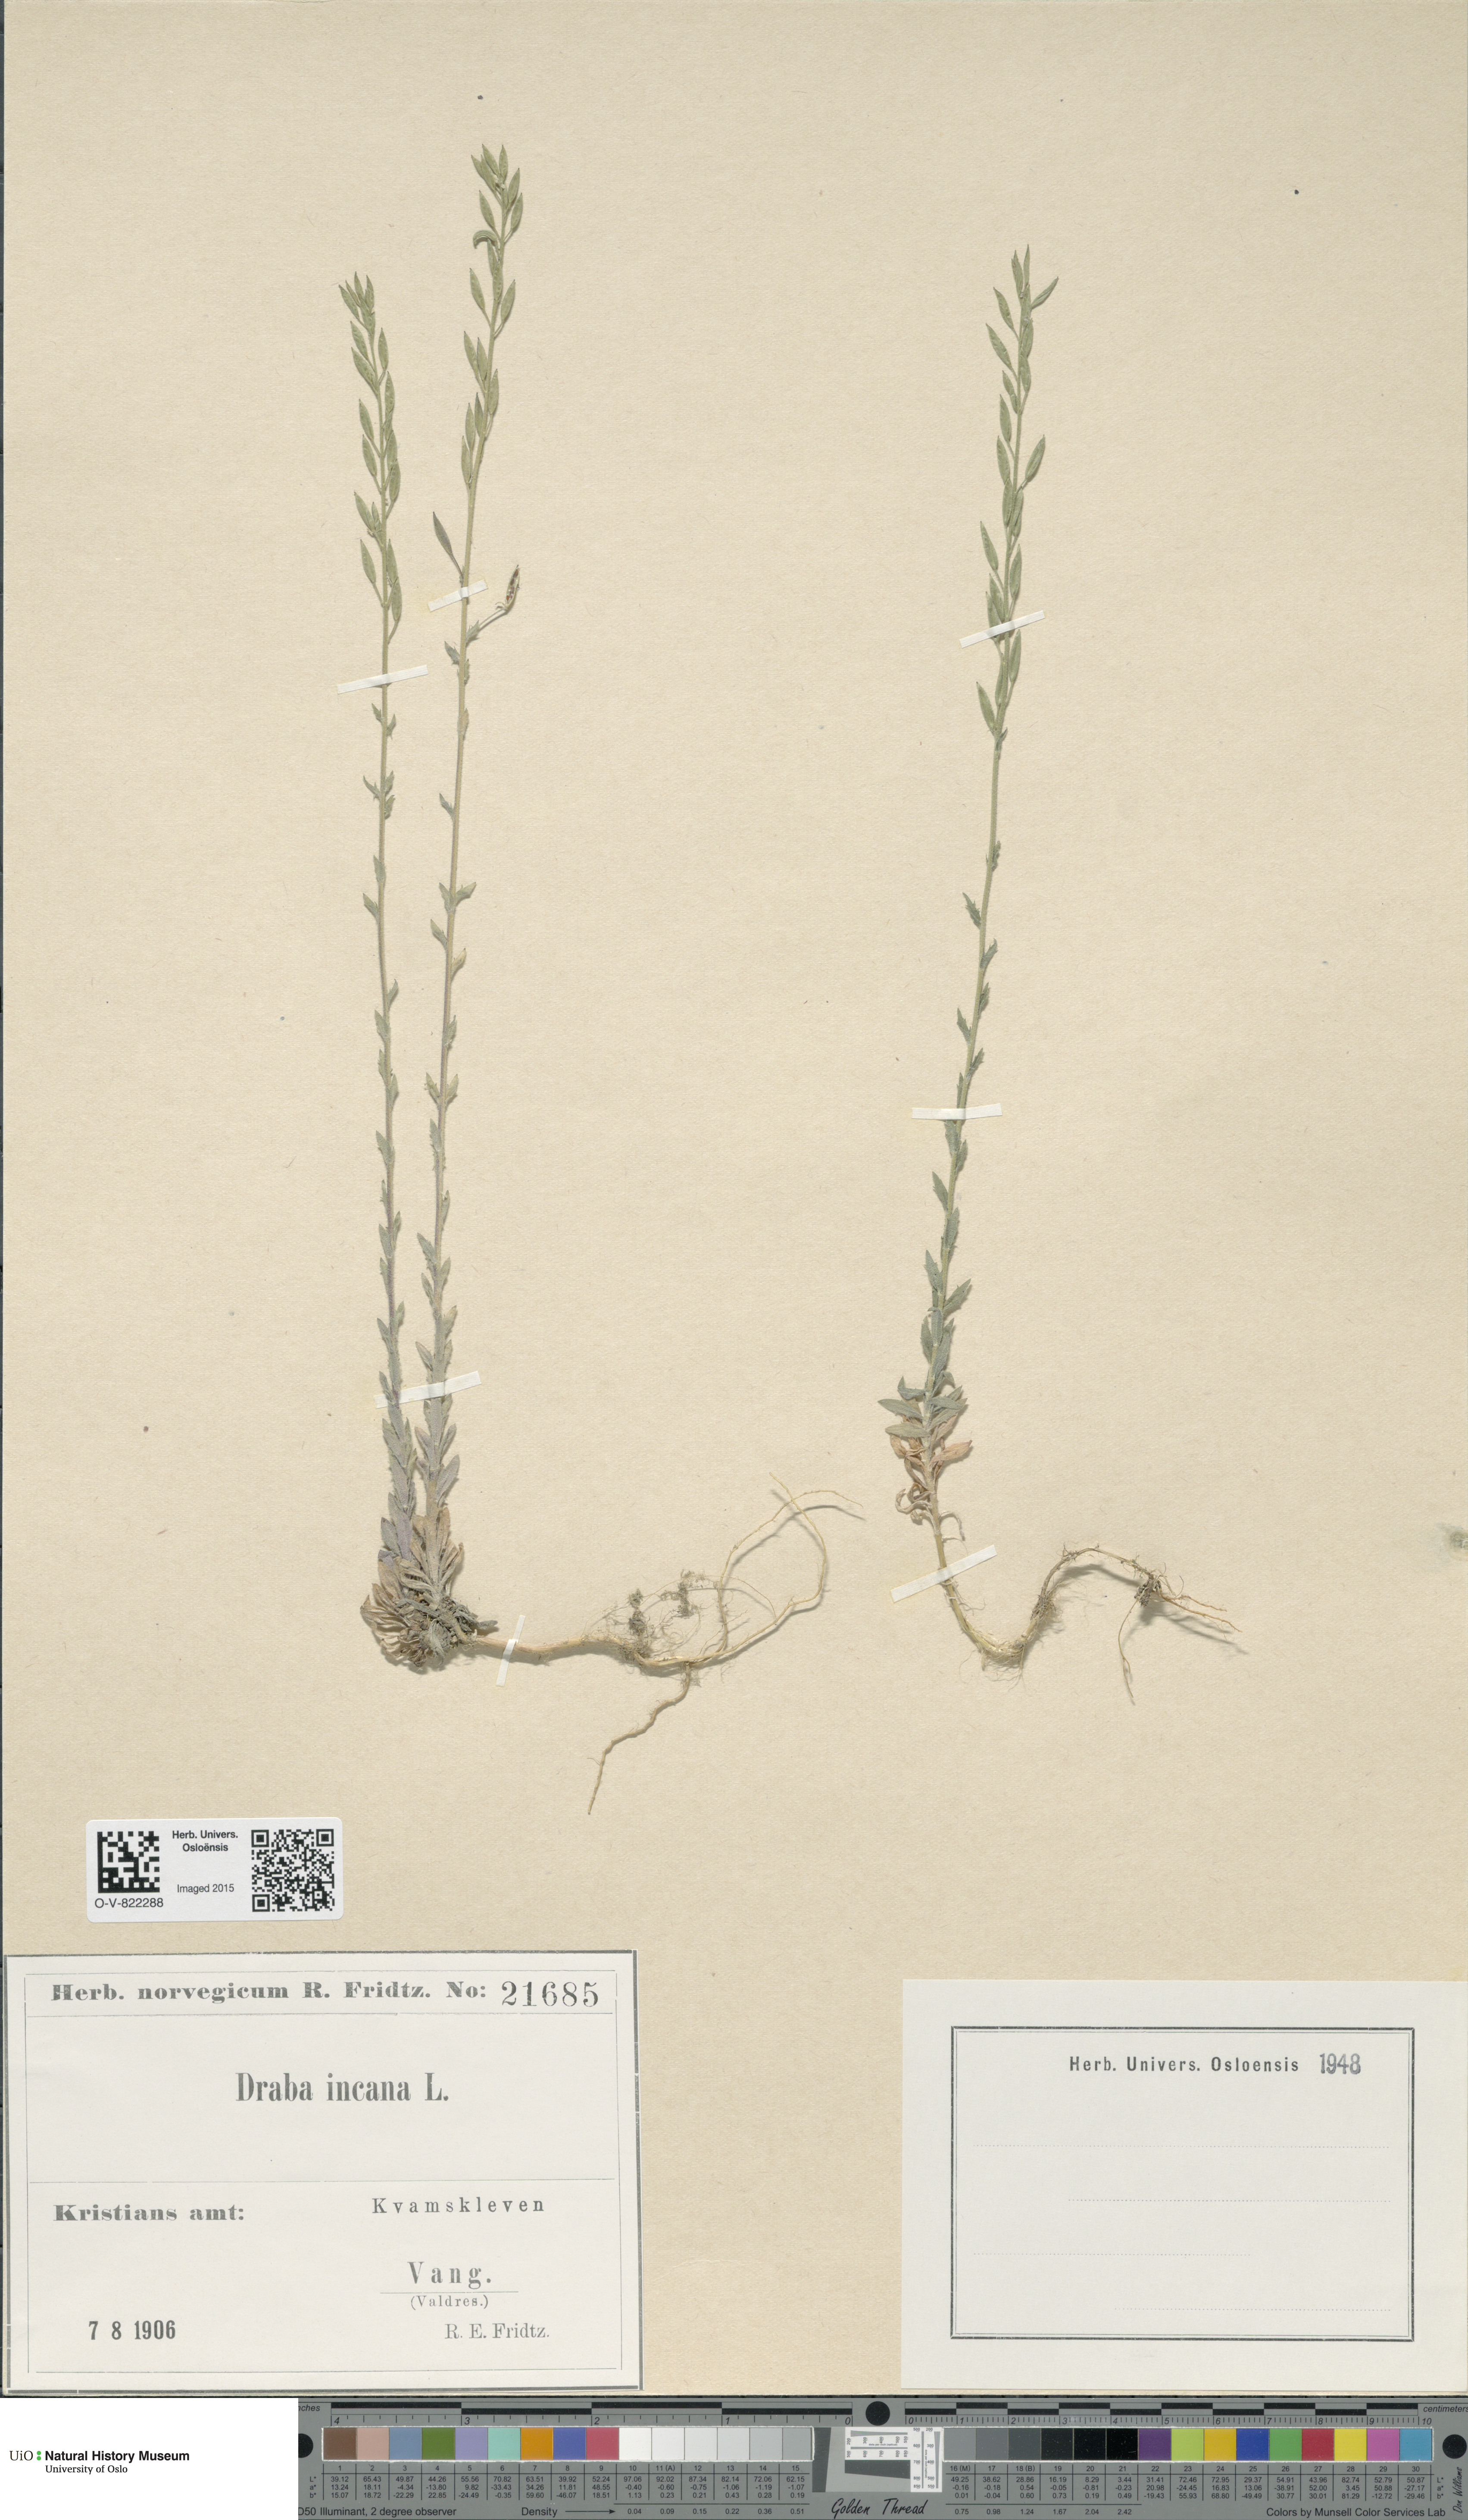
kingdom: Plantae
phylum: Tracheophyta
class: Magnoliopsida
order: Brassicales
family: Brassicaceae
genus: Draba
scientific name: Draba incana
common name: Hoary whitlow-grass
